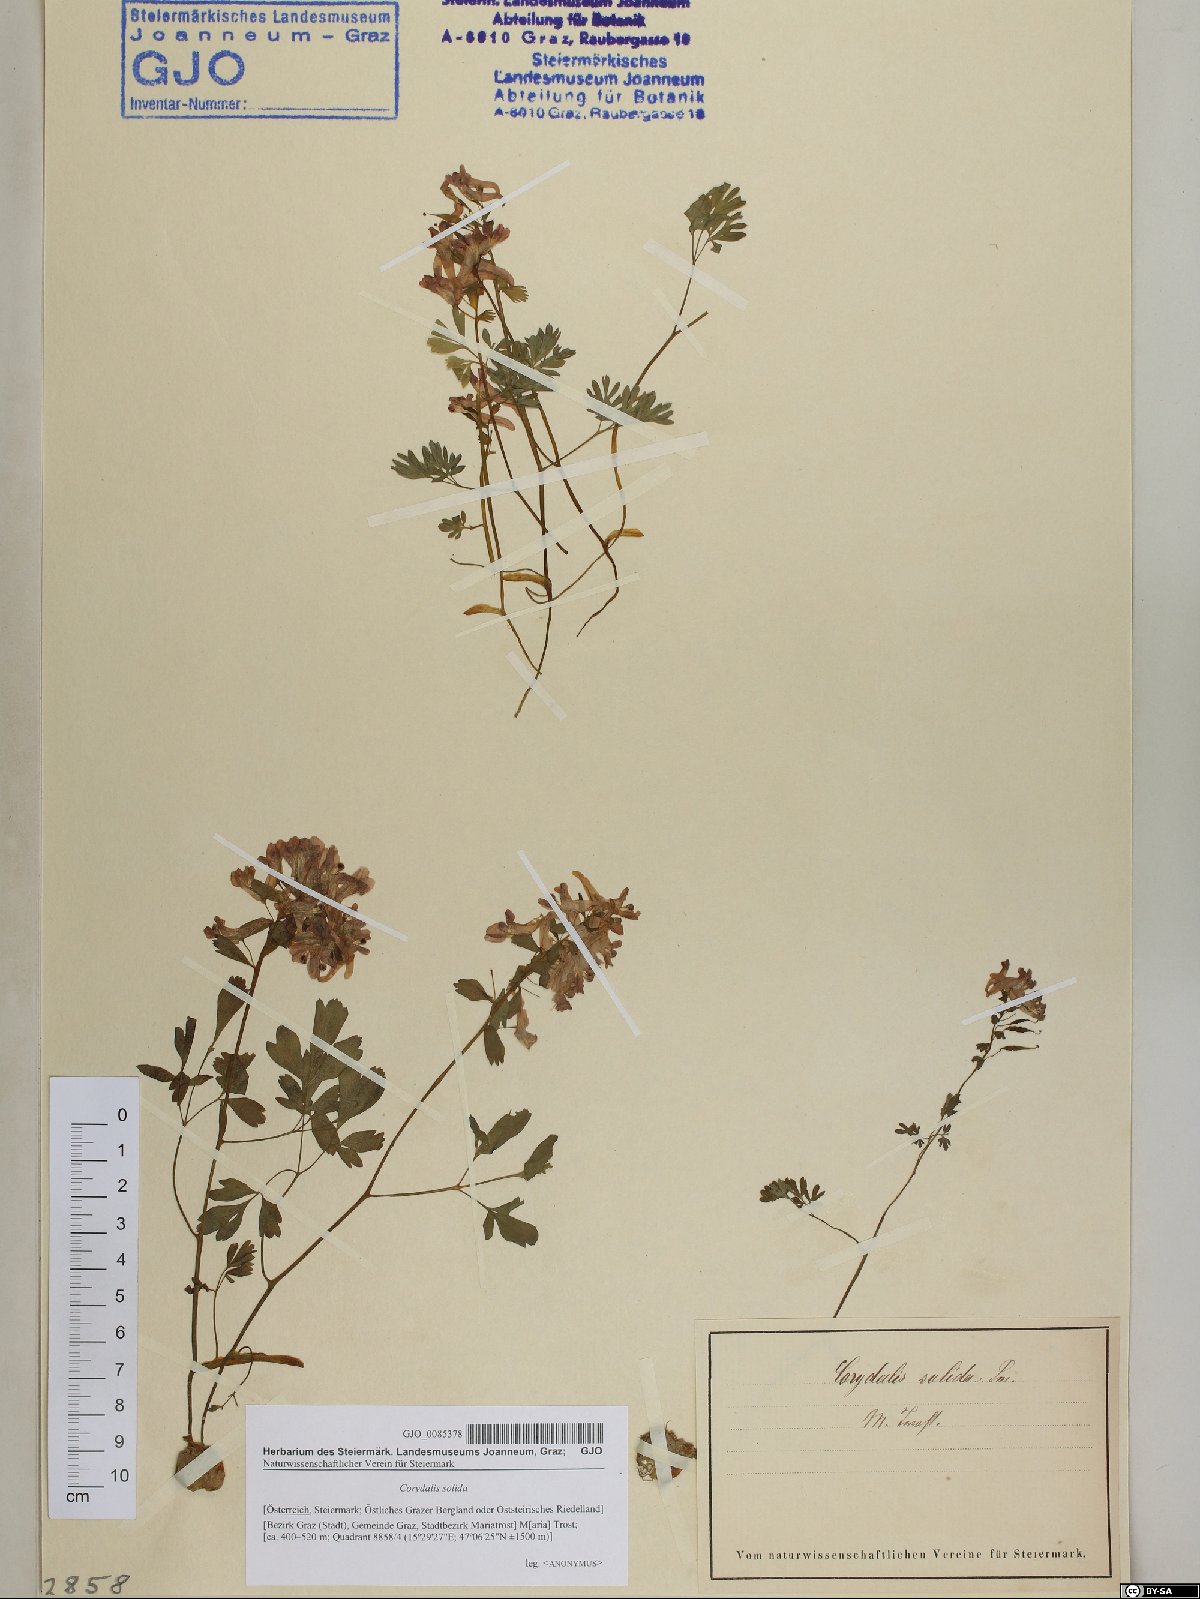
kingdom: Plantae
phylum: Tracheophyta
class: Magnoliopsida
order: Ranunculales
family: Papaveraceae
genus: Corydalis
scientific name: Corydalis solida
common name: Bird-in-a-bush
